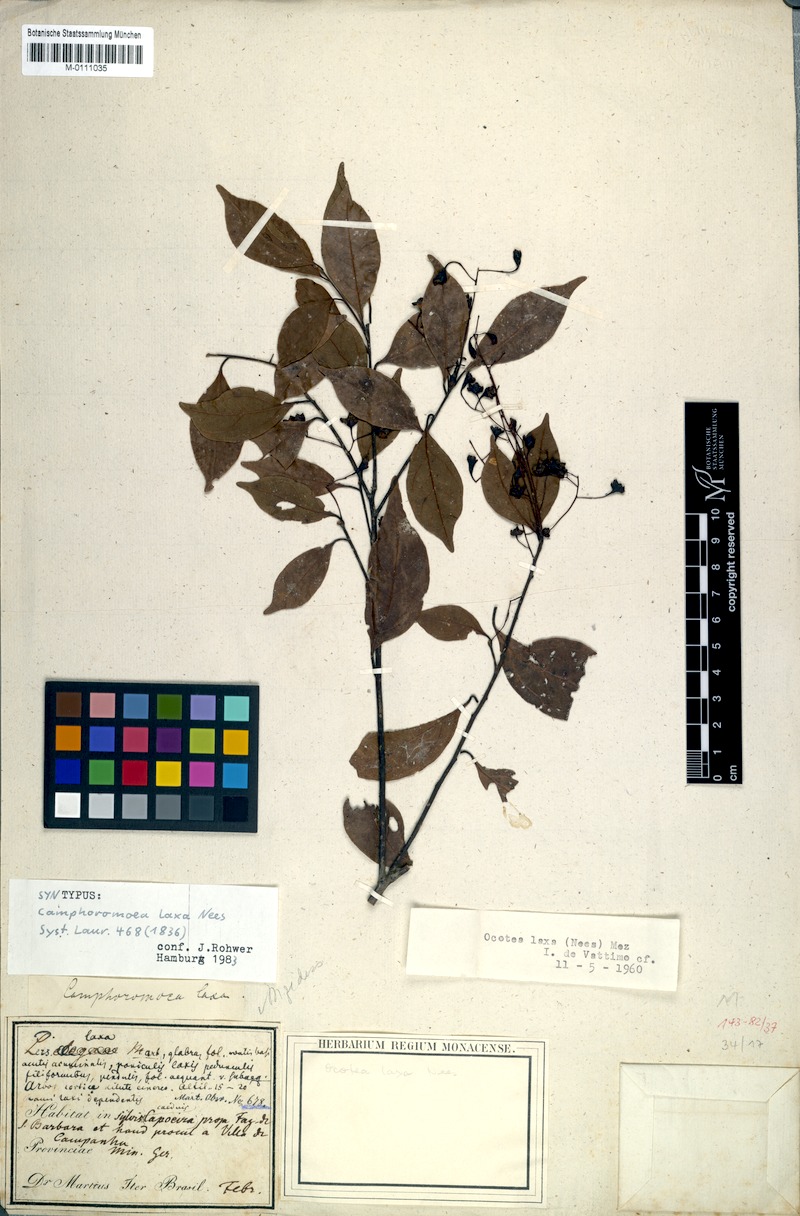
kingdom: Plantae
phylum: Tracheophyta
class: Magnoliopsida
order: Laurales
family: Lauraceae
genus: Ocotea
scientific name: Ocotea laxa
